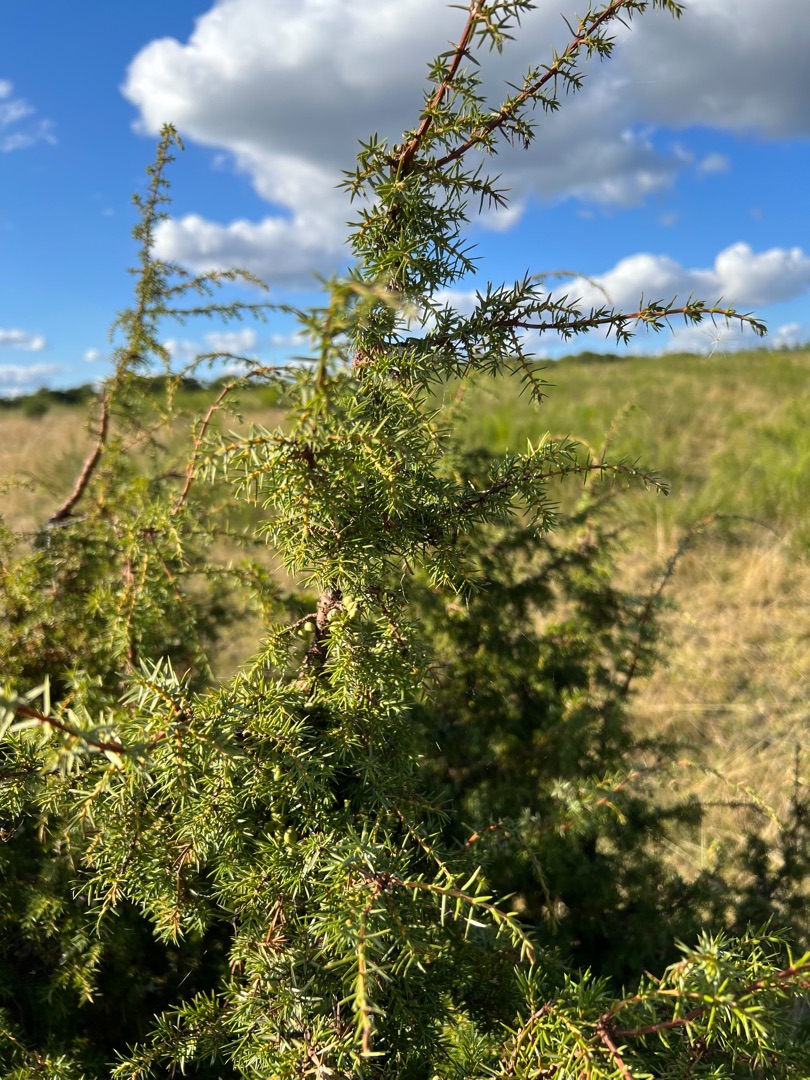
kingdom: Plantae
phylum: Tracheophyta
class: Pinopsida
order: Pinales
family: Cupressaceae
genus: Juniperus
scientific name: Juniperus communis
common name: Almindelig ene
